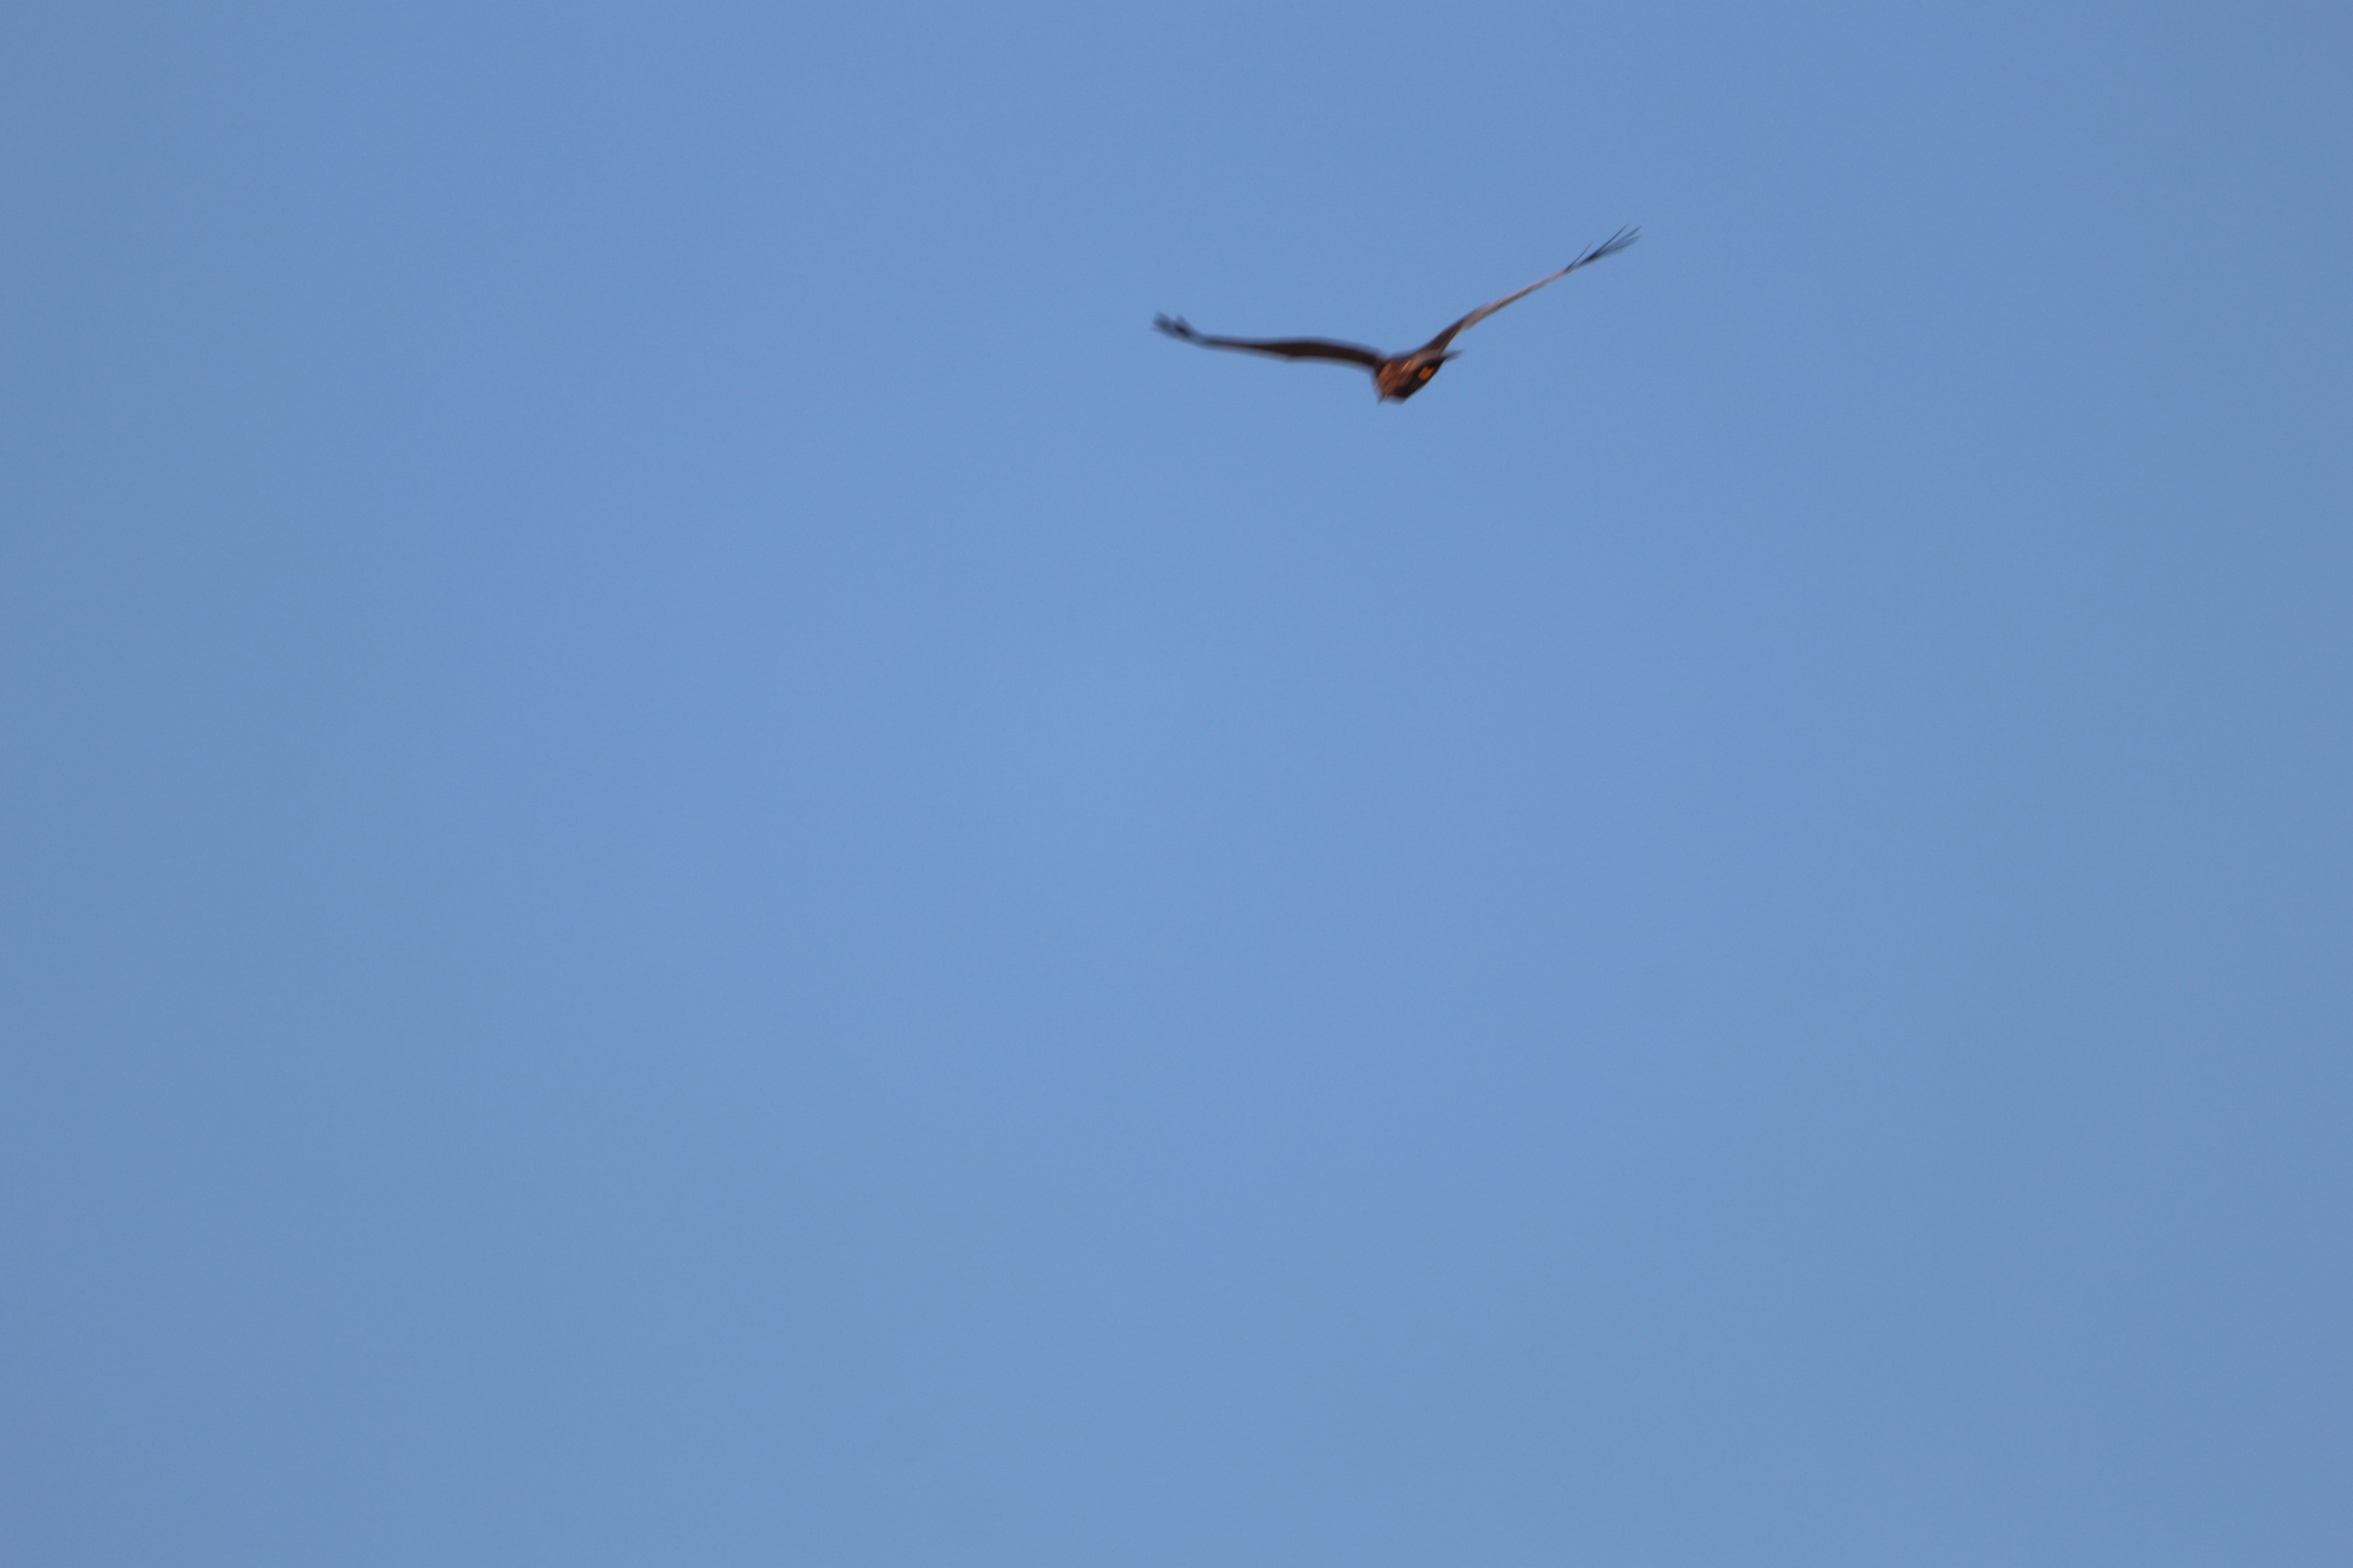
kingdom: Animalia
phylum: Chordata
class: Aves
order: Accipitriformes
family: Accipitridae
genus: Circus
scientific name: Circus aeruginosus
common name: Rørhøg
